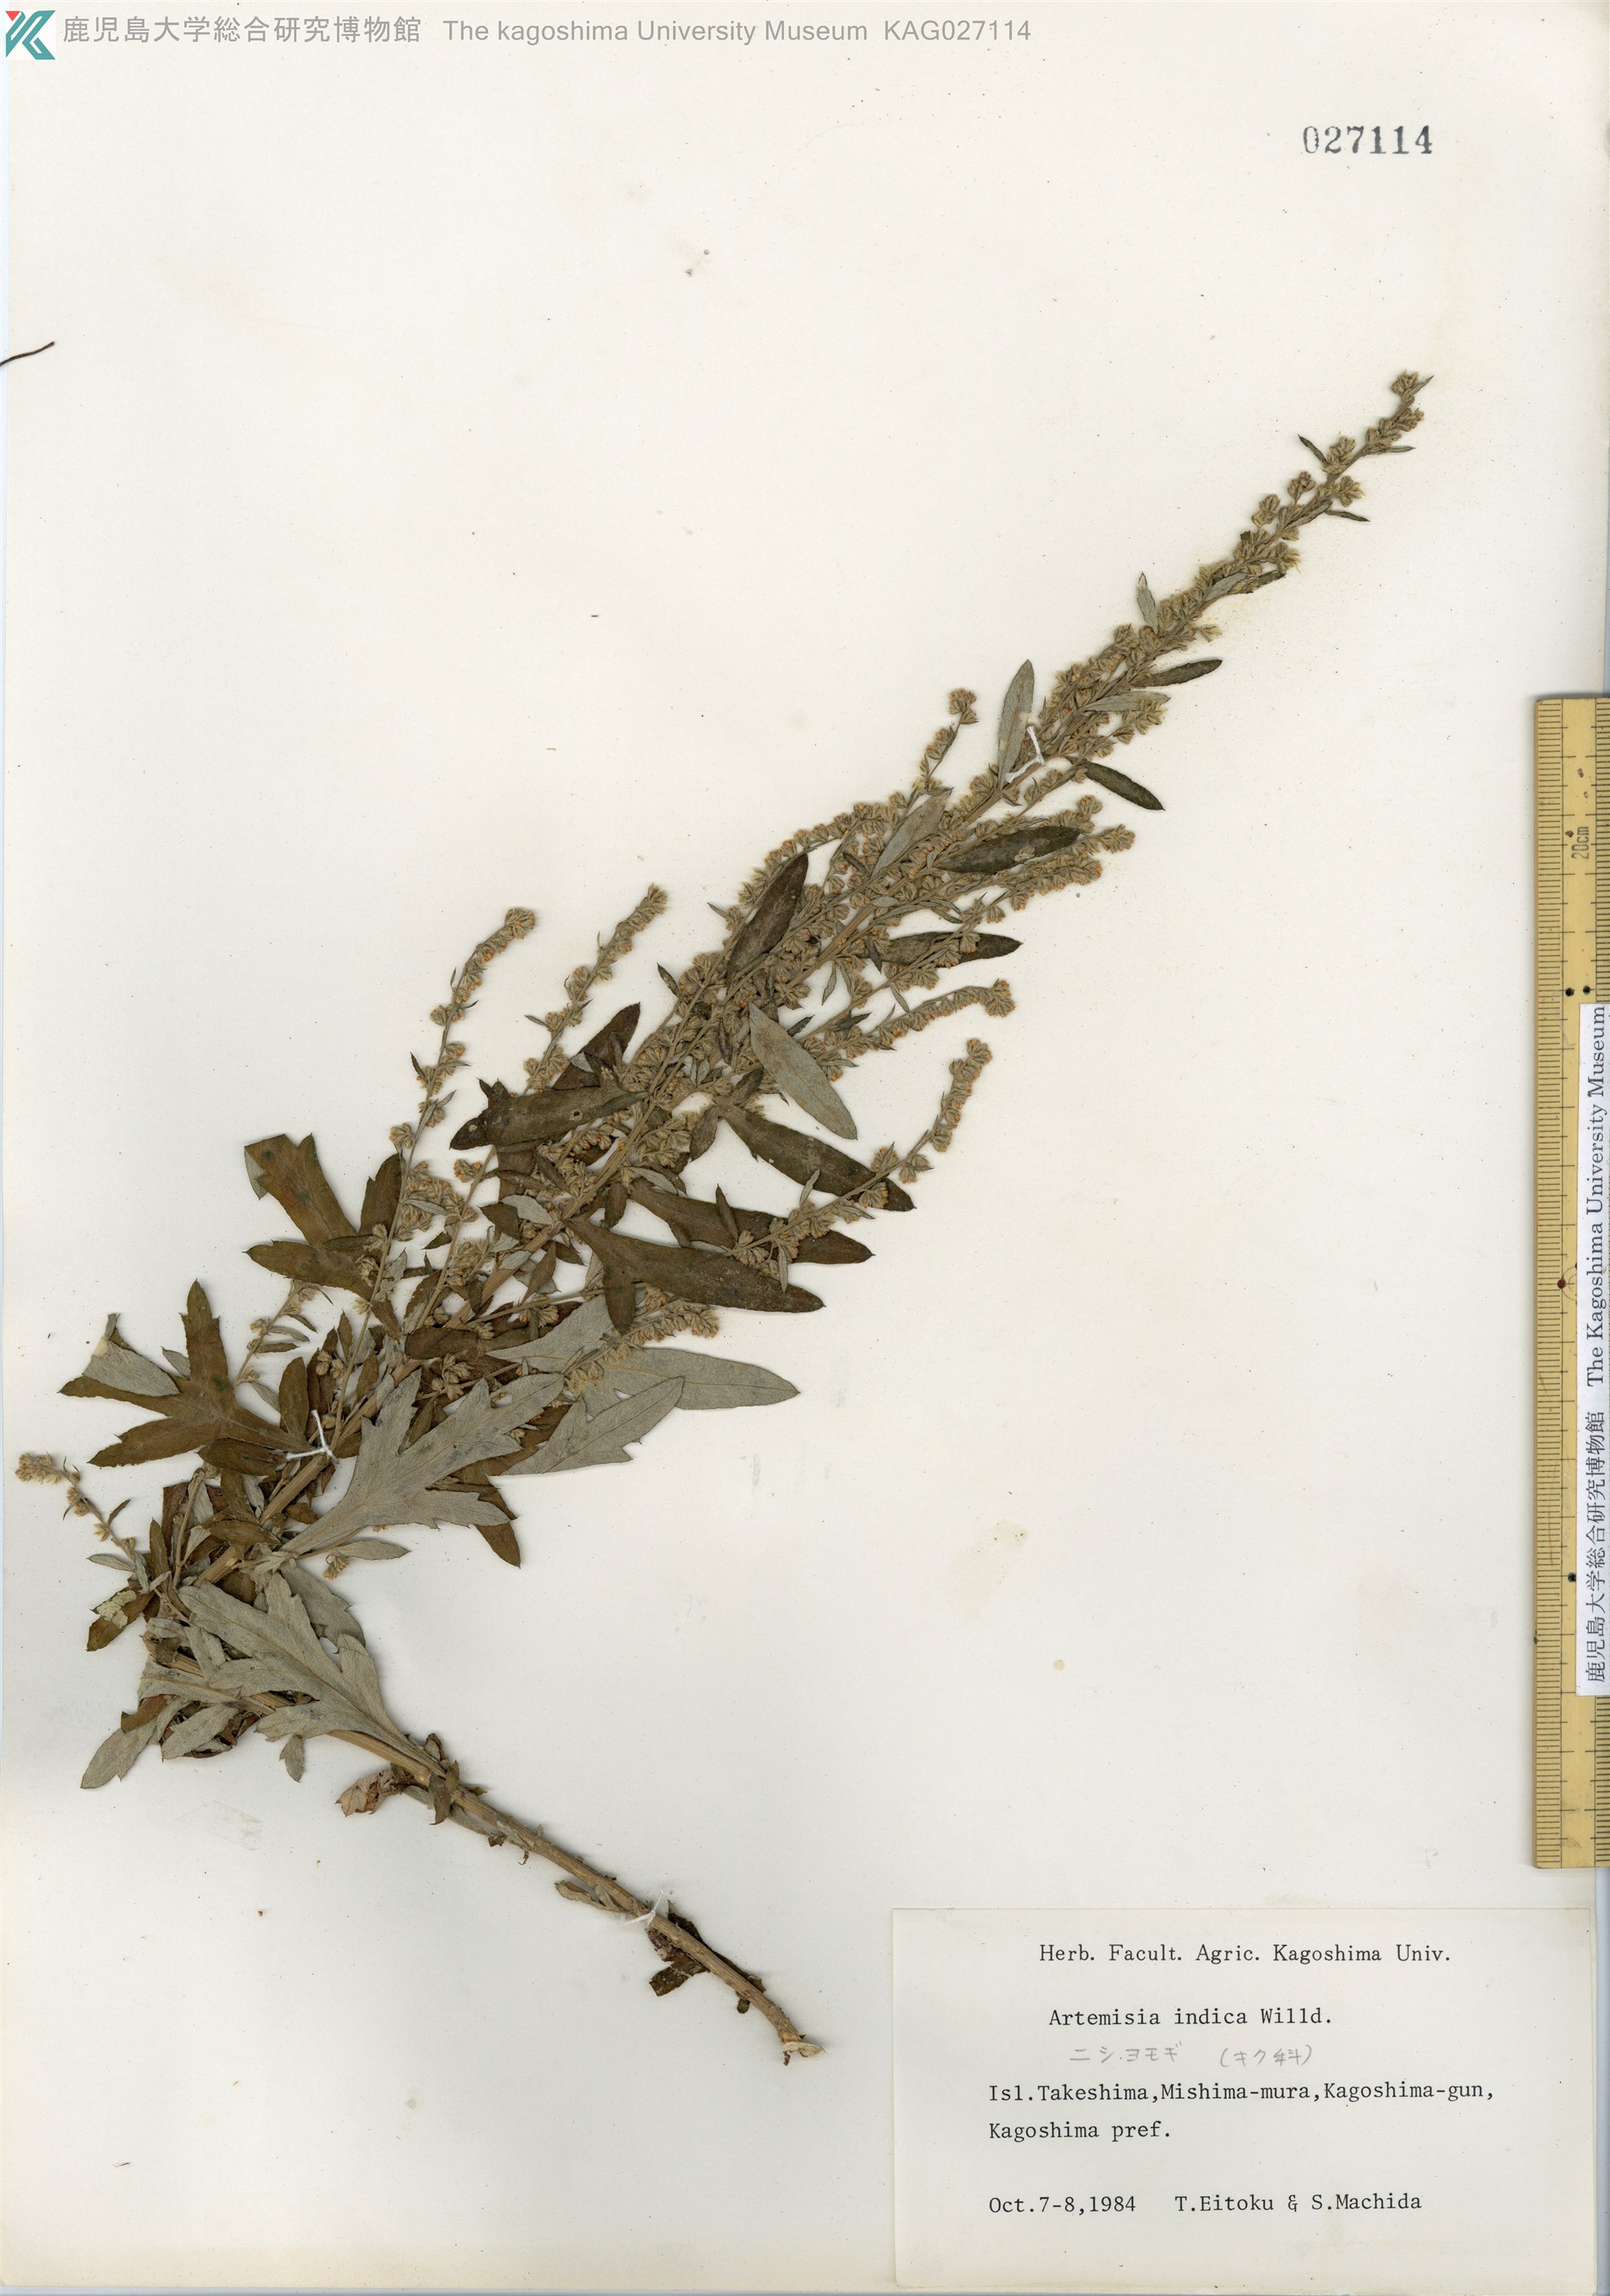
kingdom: Plantae
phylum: Tracheophyta
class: Magnoliopsida
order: Asterales
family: Asteraceae
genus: Artemisia
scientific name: Artemisia indica
